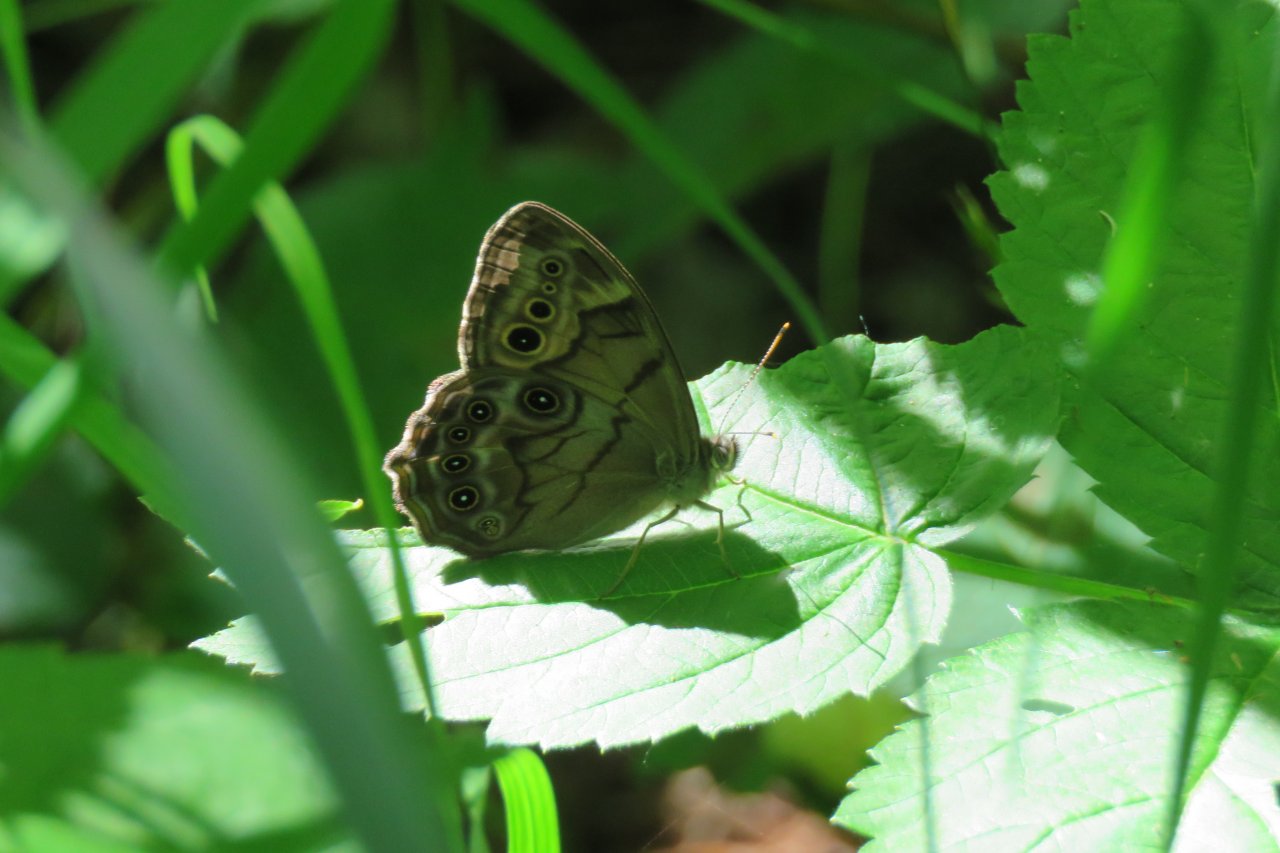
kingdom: Animalia
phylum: Arthropoda
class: Insecta
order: Lepidoptera
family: Nymphalidae
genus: Lethe
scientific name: Lethe anthedon
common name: Northern Pearly-Eye
